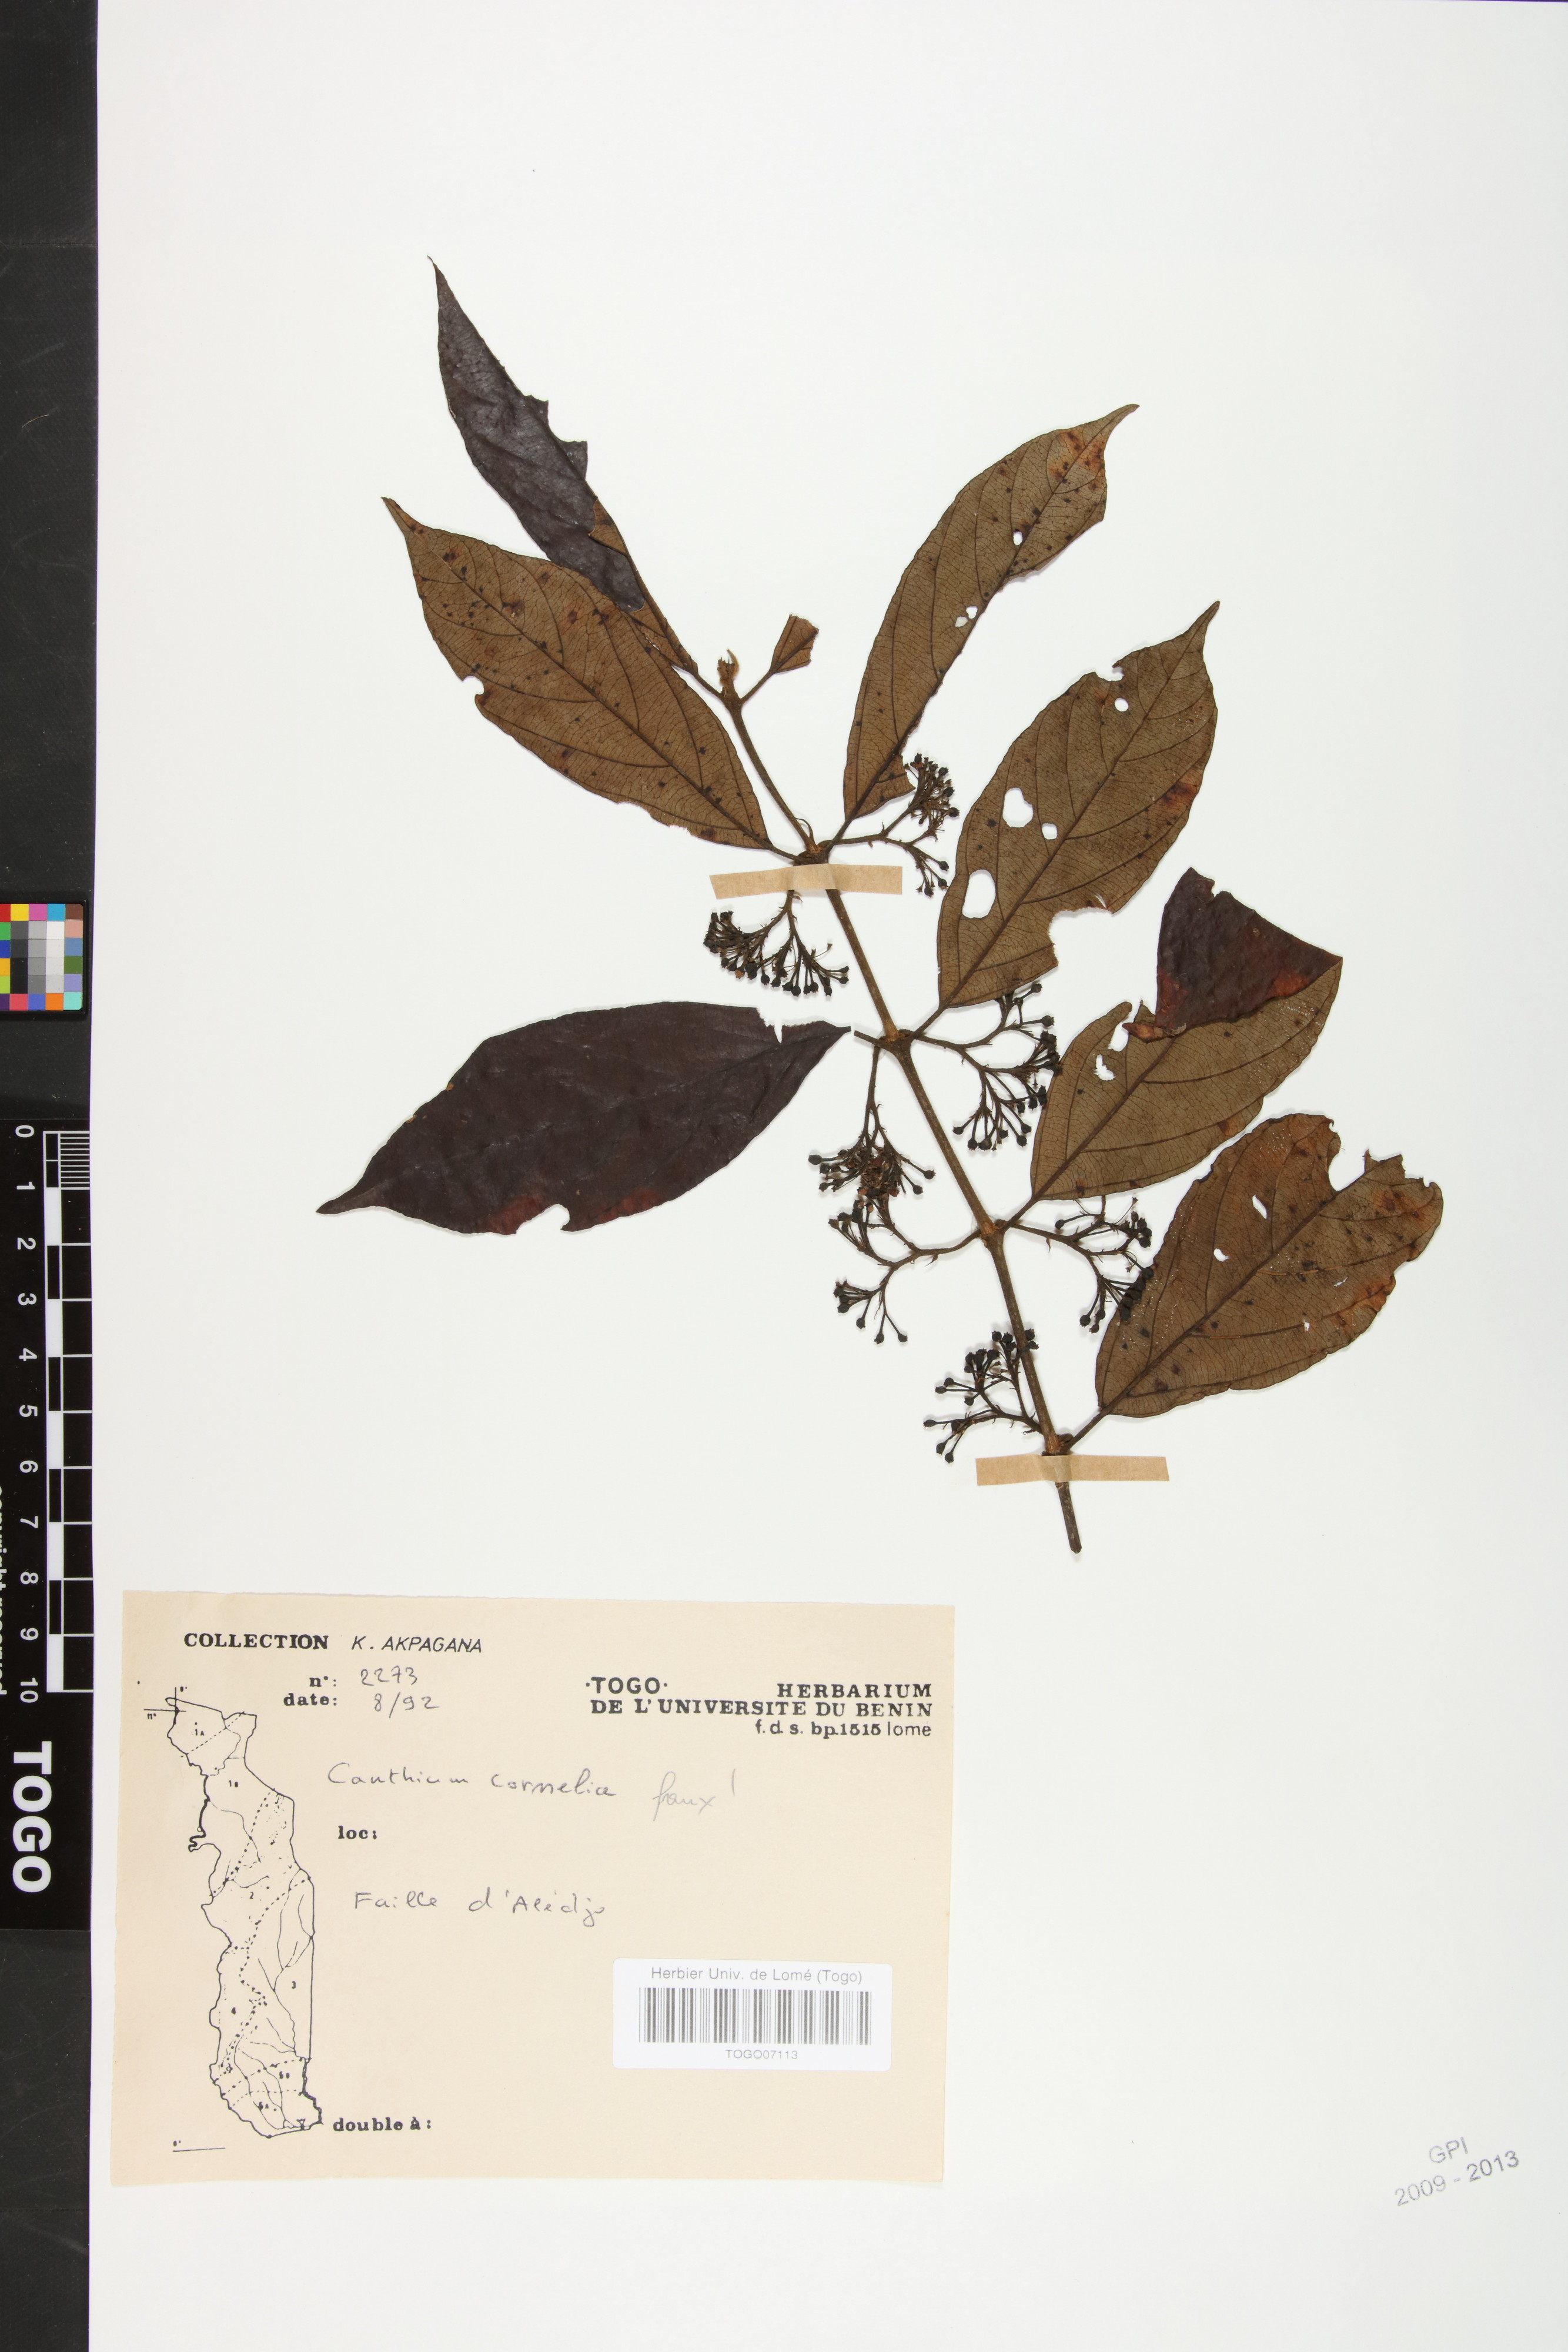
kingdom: Plantae
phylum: Tracheophyta
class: Magnoliopsida
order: Gentianales
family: Rubiaceae
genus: Keetia
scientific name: Keetia cornelia
